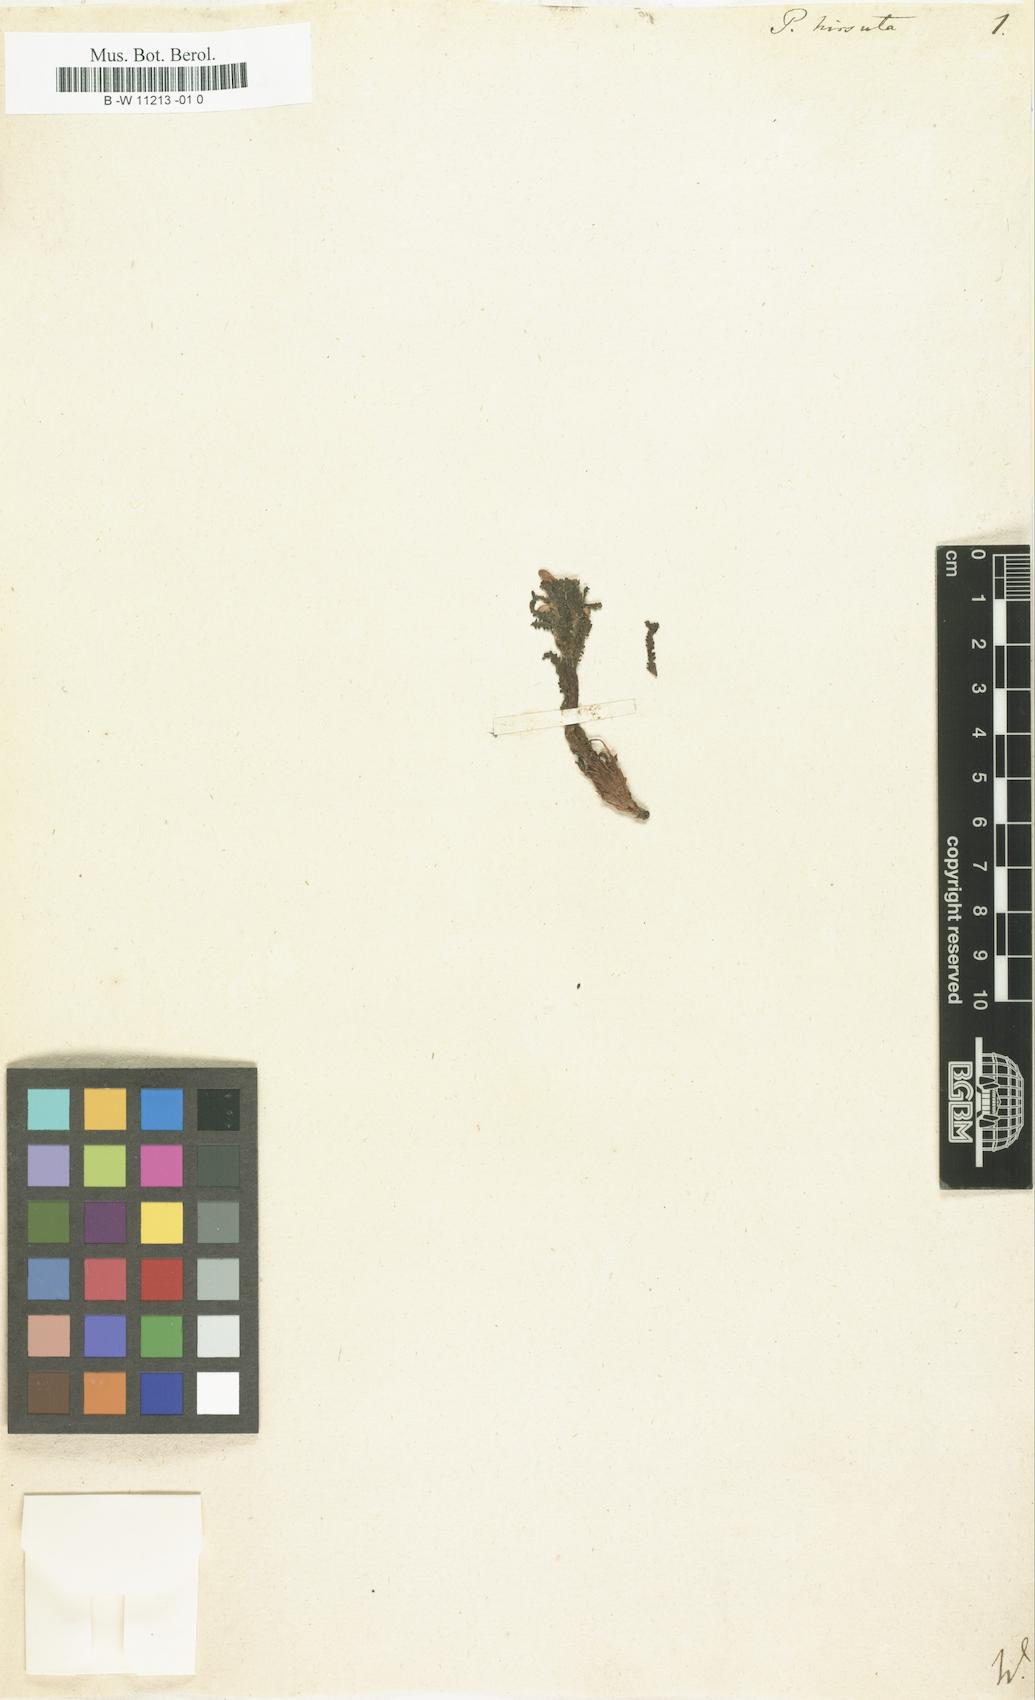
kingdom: Plantae
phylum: Tracheophyta
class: Magnoliopsida
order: Lamiales
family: Orobanchaceae
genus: Pedicularis
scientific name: Pedicularis hirsuta
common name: Hairy lousewort
